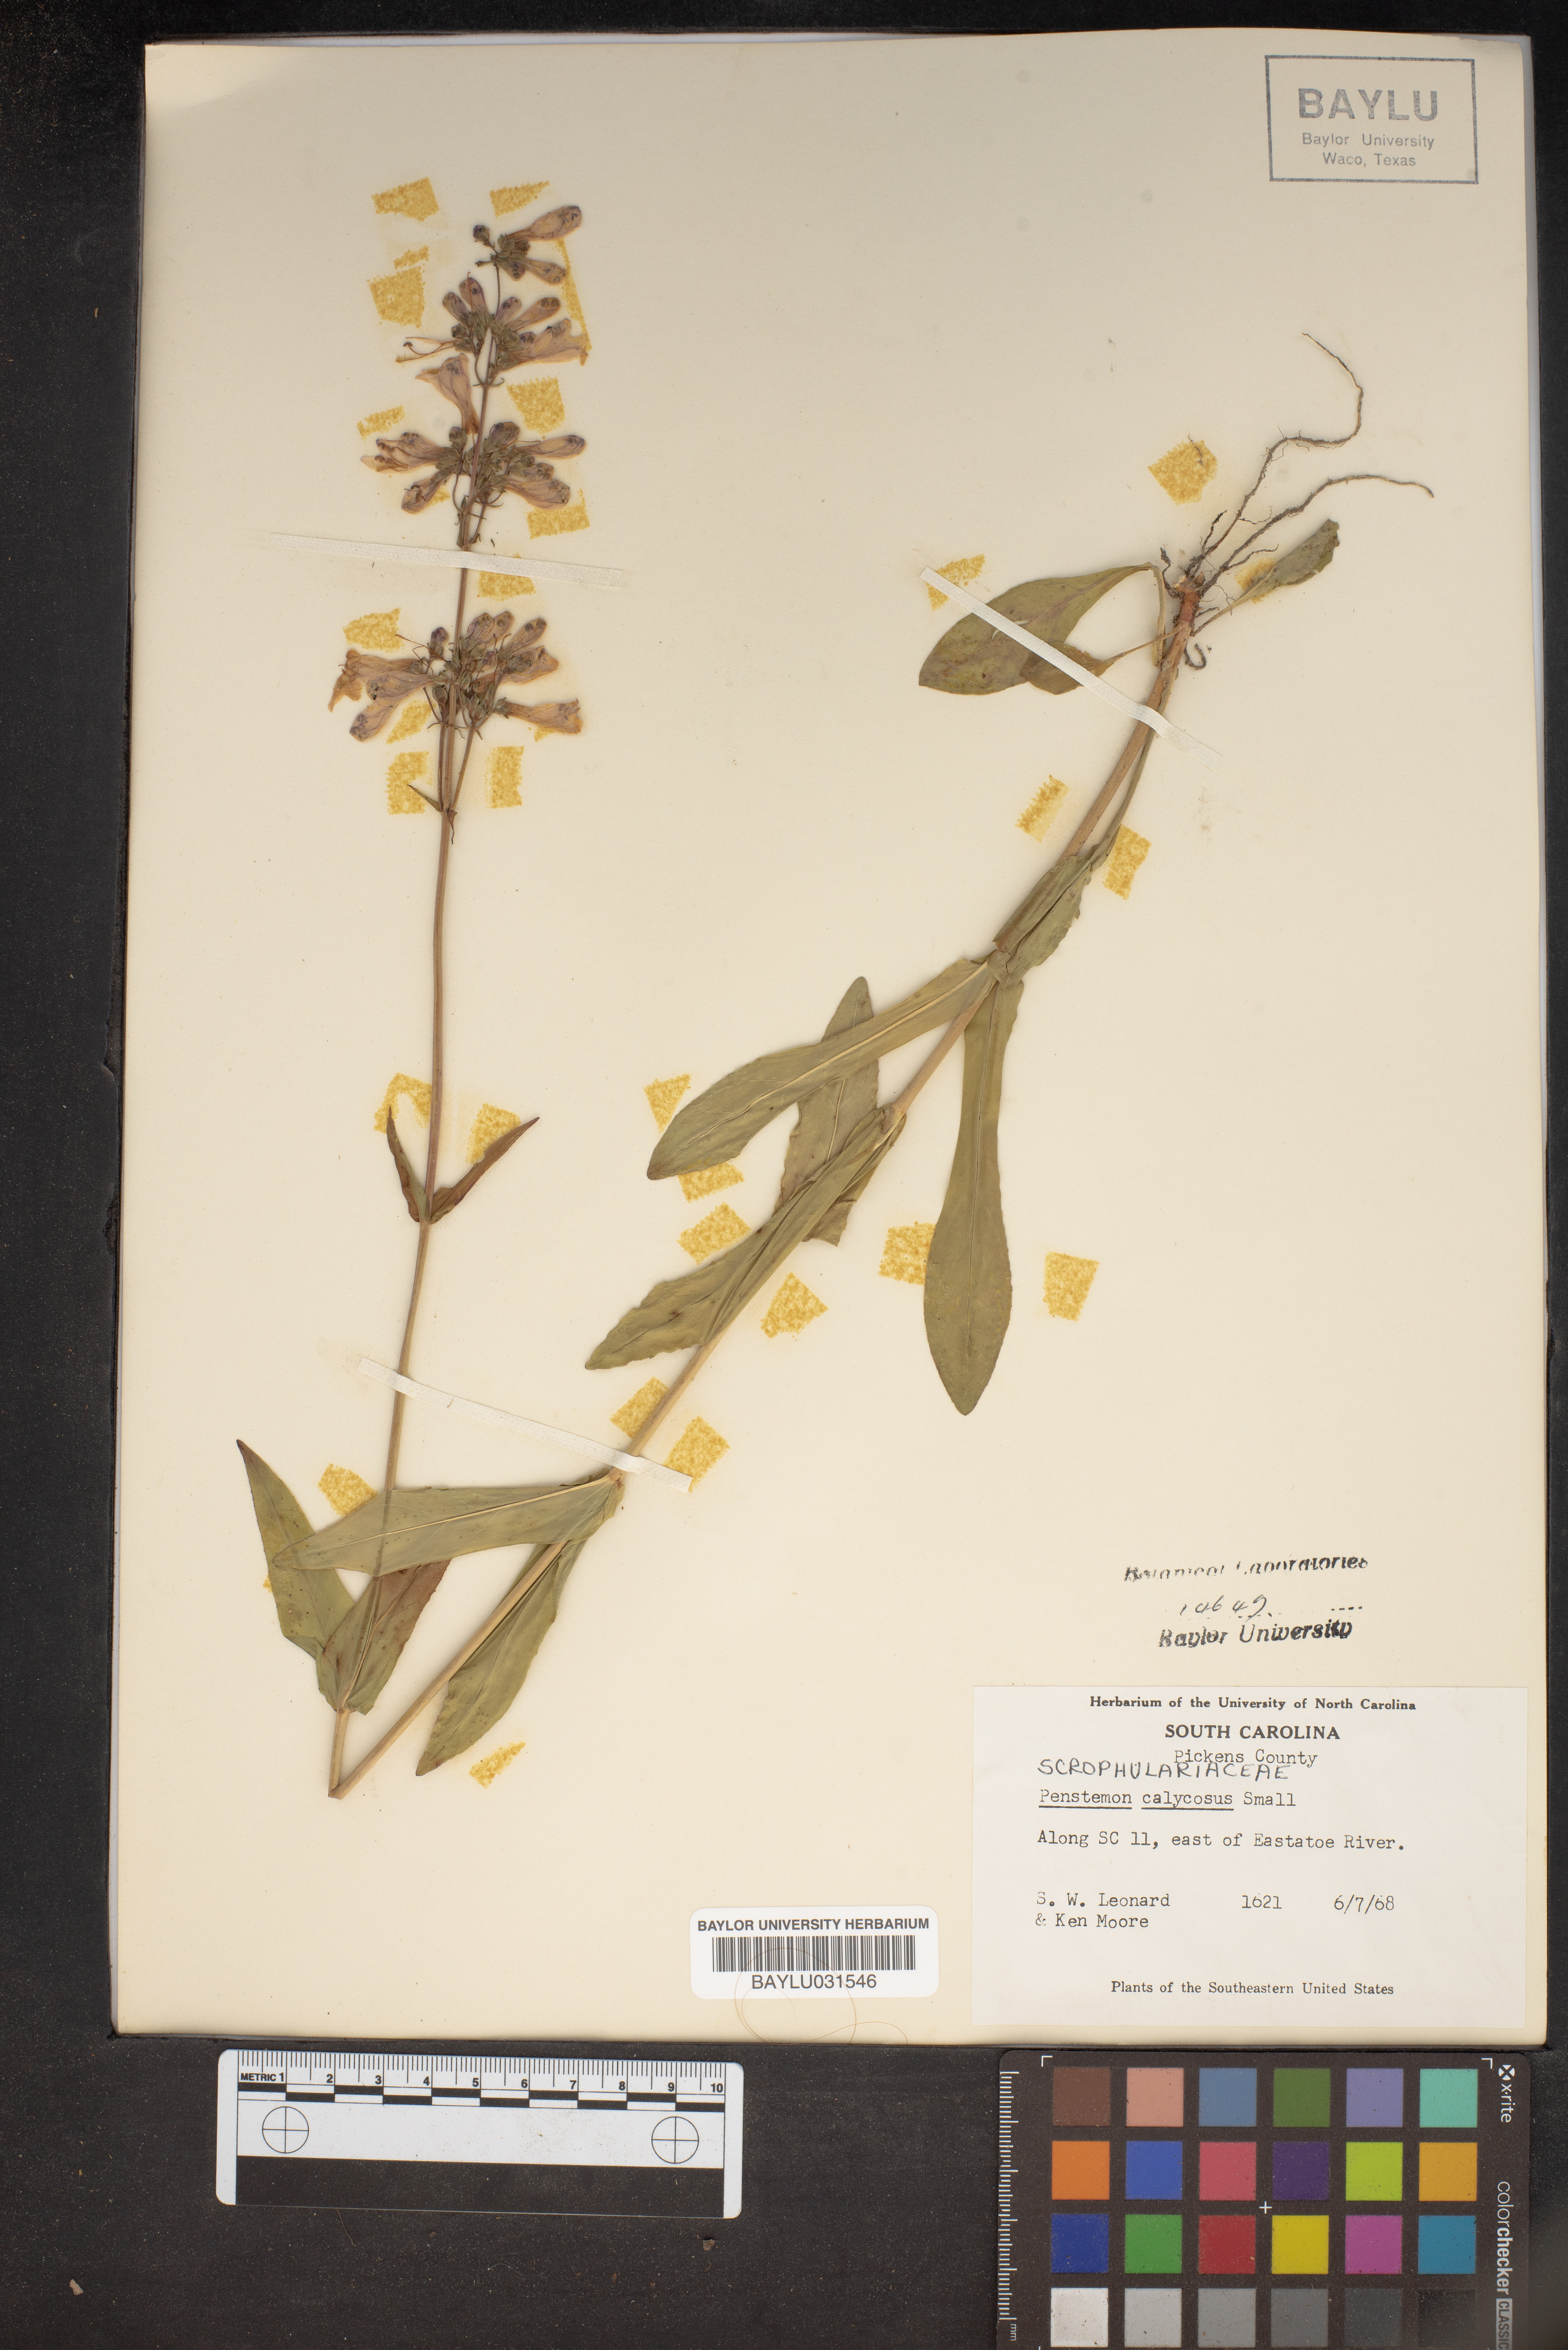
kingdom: Plantae
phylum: Tracheophyta
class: Magnoliopsida
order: Lamiales
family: Plantaginaceae
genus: Penstemon
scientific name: Penstemon calycosus
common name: Long-sepal beardtongue
